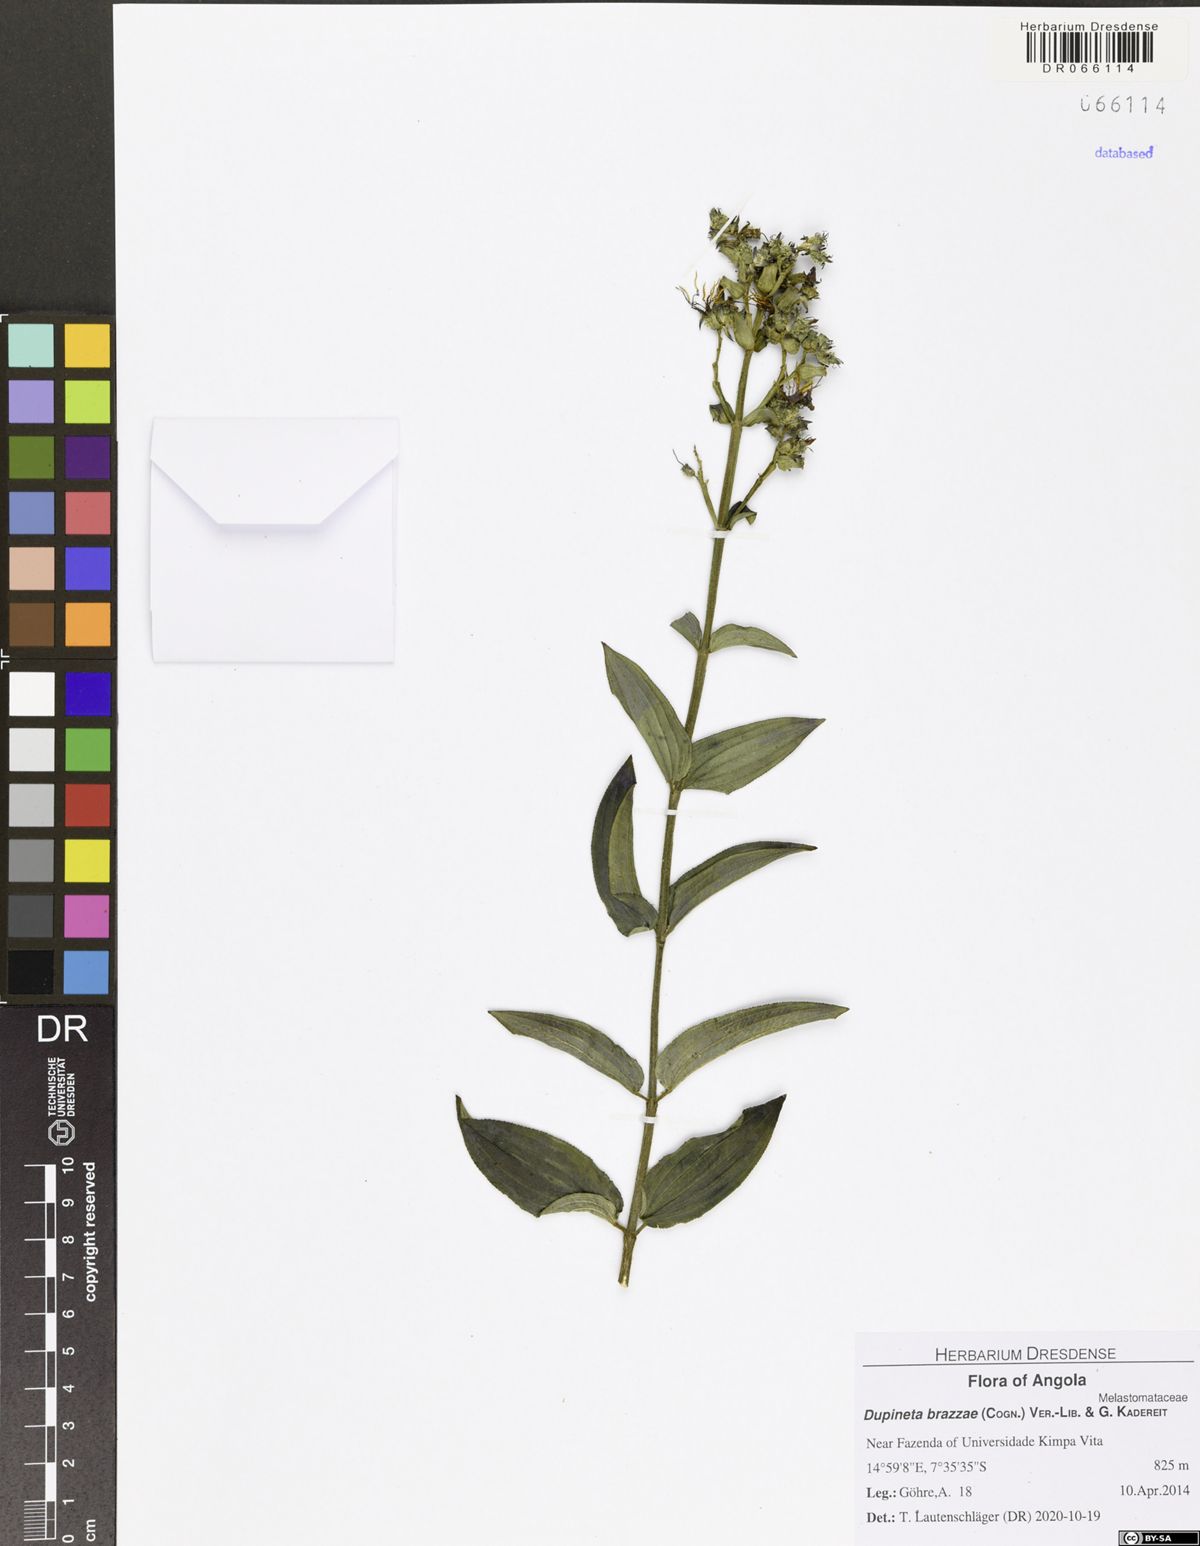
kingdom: Plantae
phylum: Tracheophyta
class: Magnoliopsida
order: Myrtales
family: Melastomataceae
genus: Dupineta
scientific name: Dupineta brazzae
